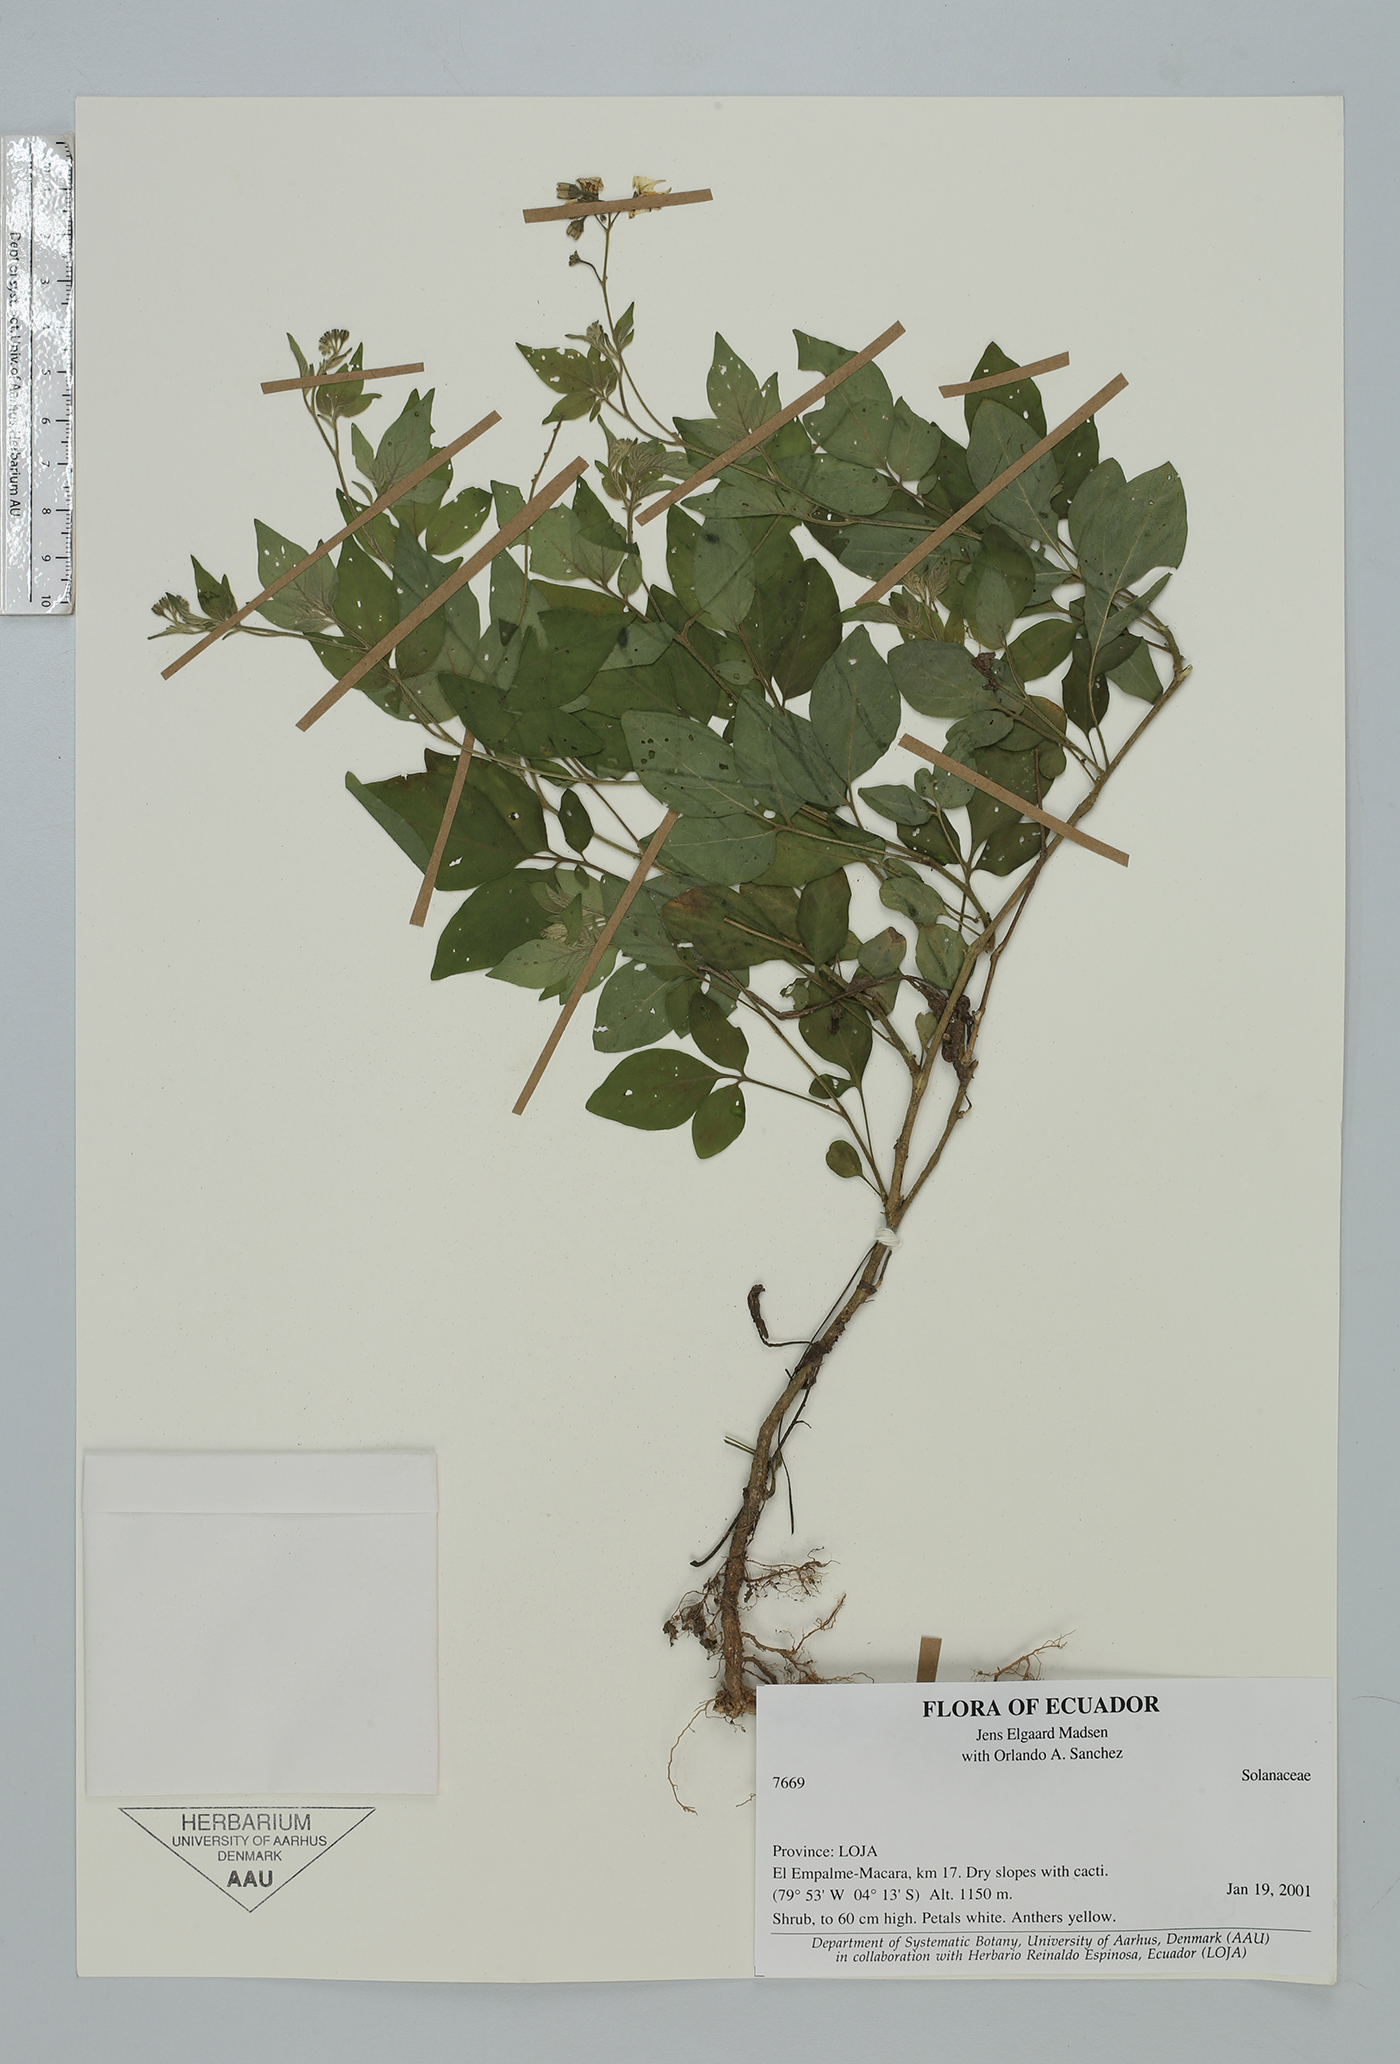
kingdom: Plantae
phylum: Tracheophyta
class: Magnoliopsida
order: Solanales
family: Solanaceae
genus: Solanum
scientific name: Solanum
